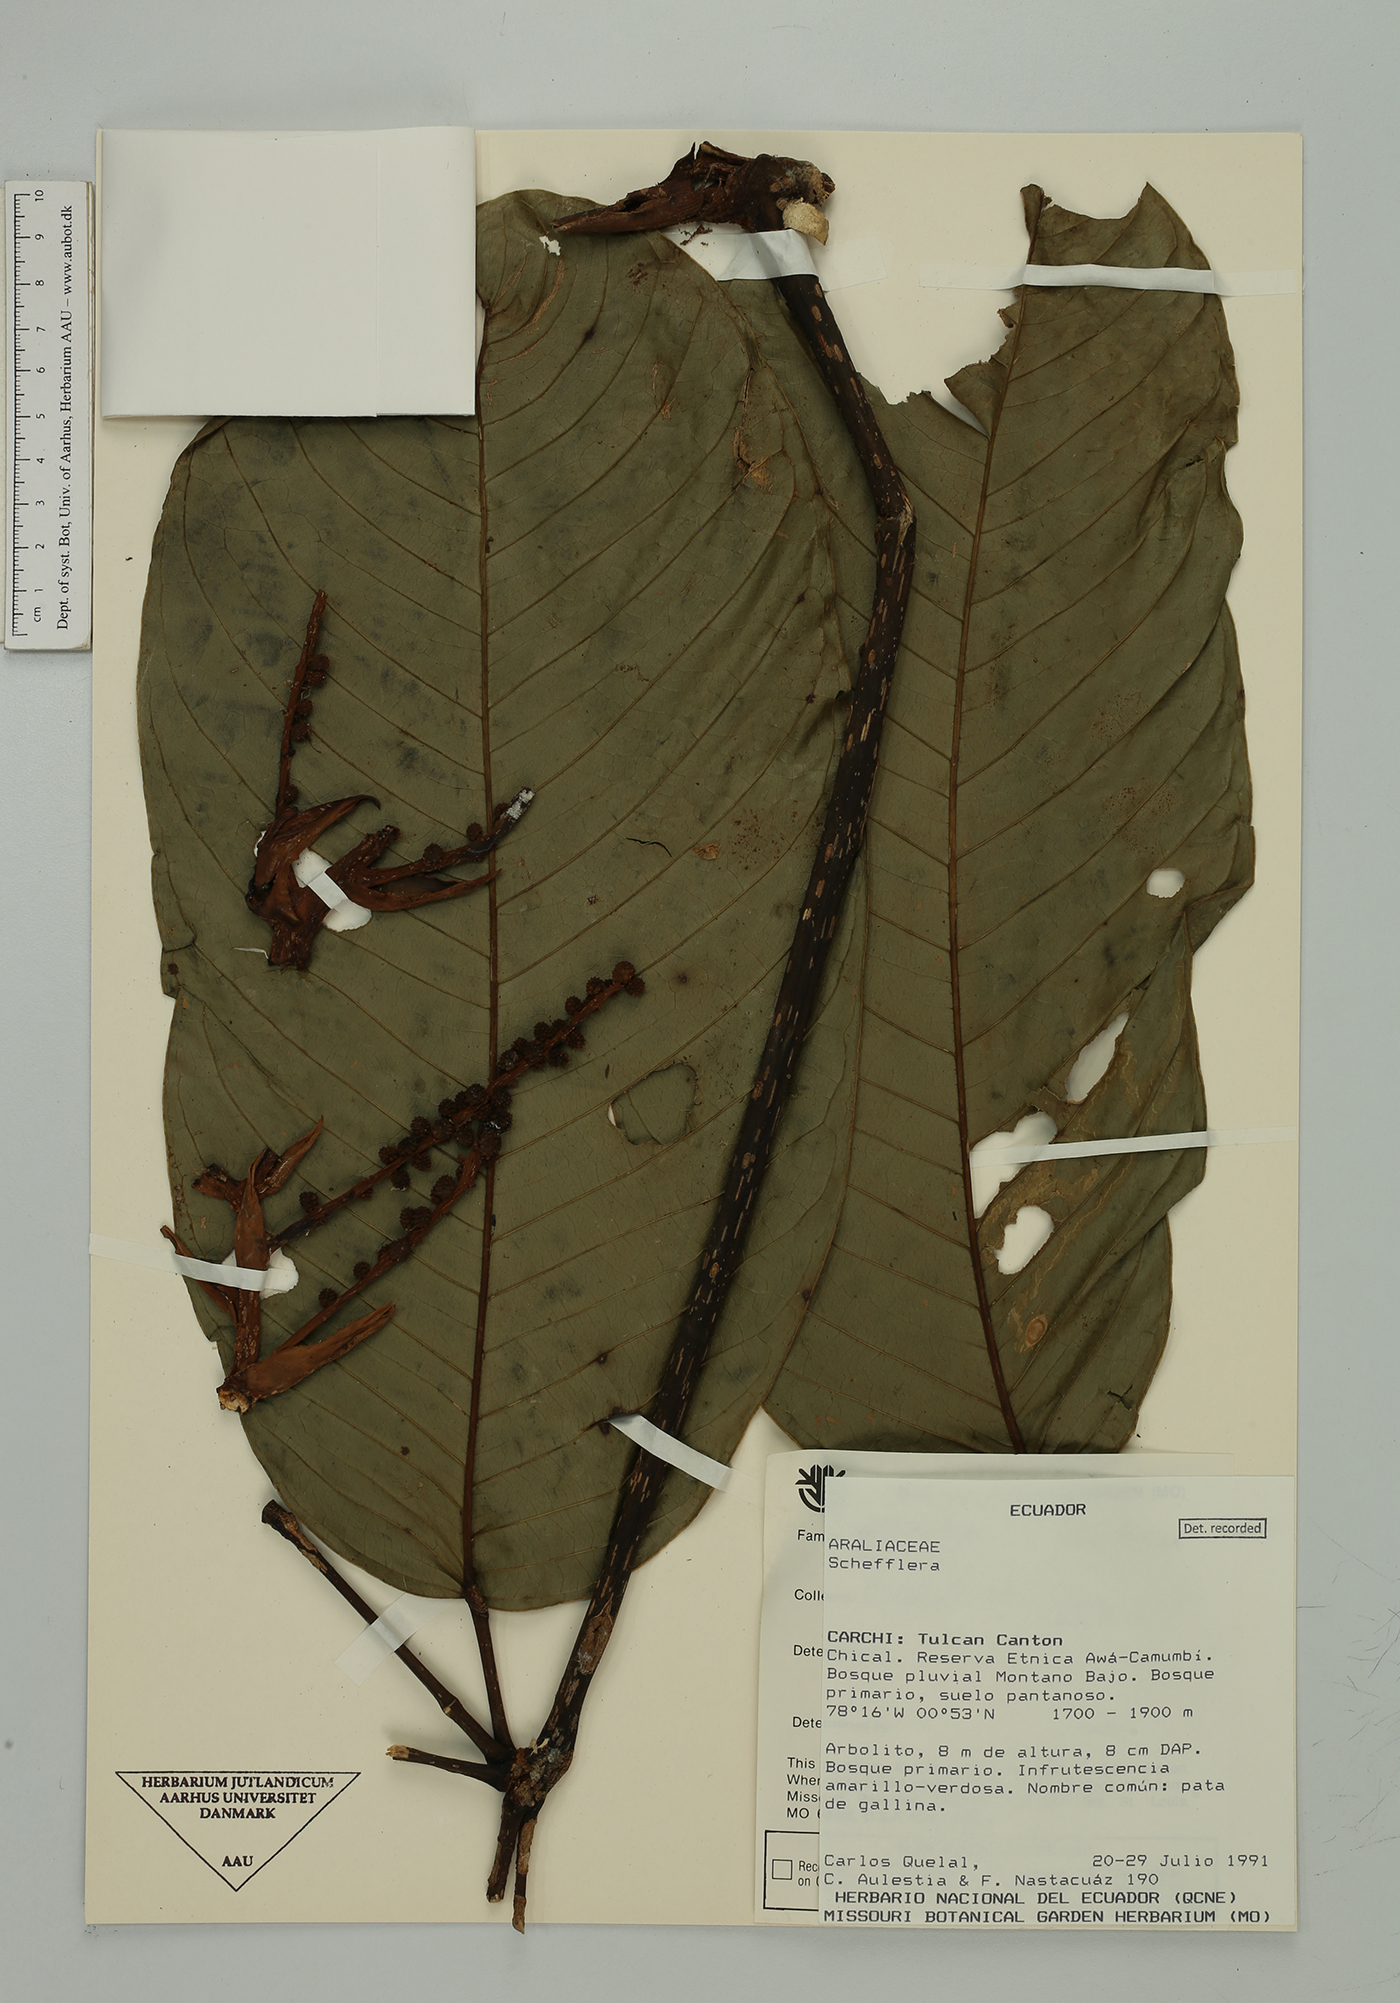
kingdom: Plantae
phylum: Tracheophyta
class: Magnoliopsida
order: Apiales
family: Araliaceae
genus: Sciodaphyllum
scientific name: Sciodaphyllum
